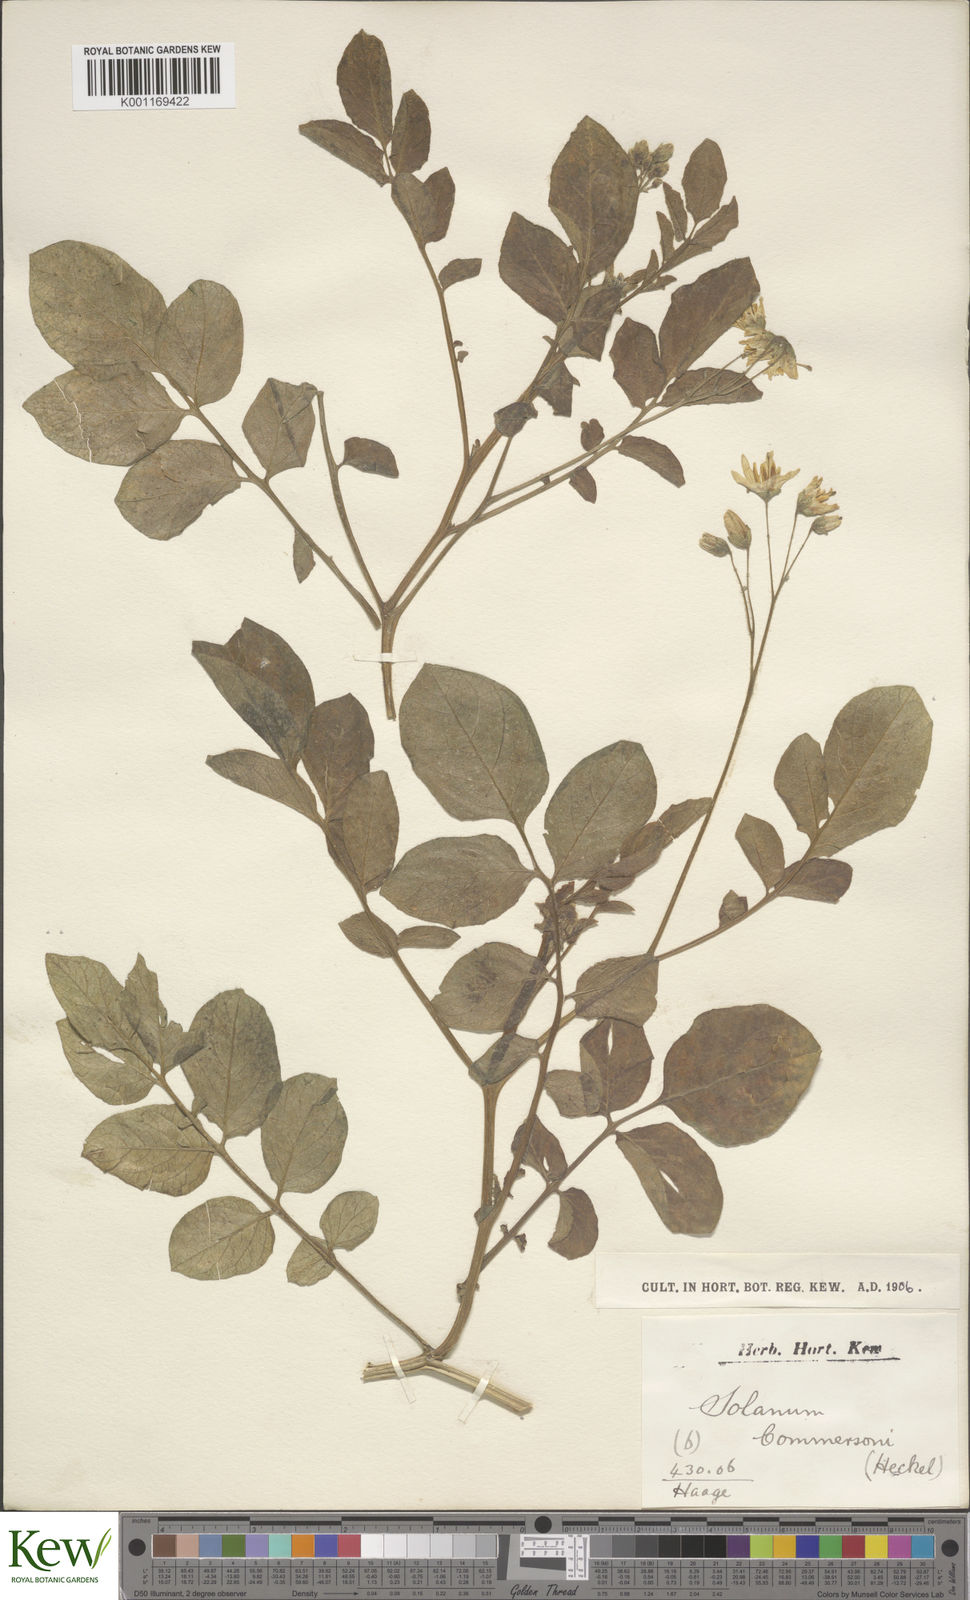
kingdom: Plantae
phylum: Tracheophyta
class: Magnoliopsida
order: Solanales
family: Solanaceae
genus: Solanum
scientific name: Solanum commersonii
